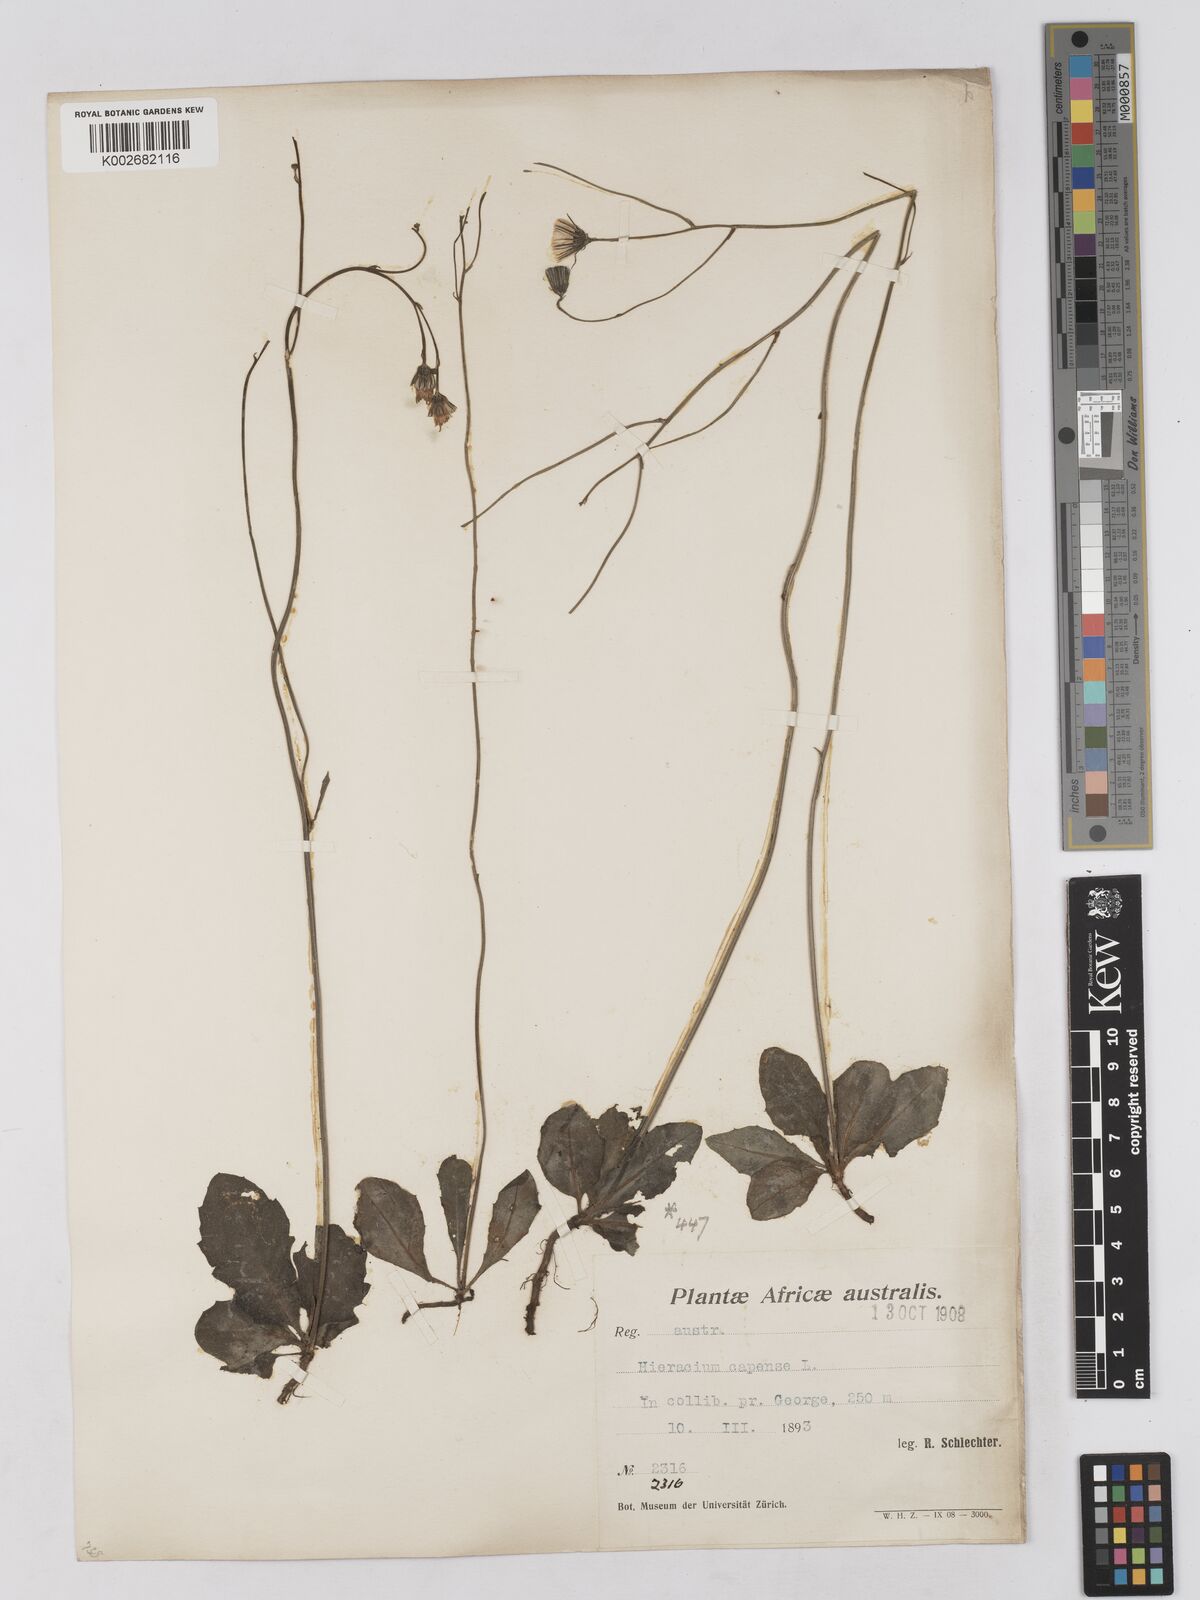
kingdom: Plantae
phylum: Tracheophyta
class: Magnoliopsida
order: Asterales
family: Asteraceae
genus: Tolpis
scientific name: Tolpis capensis
